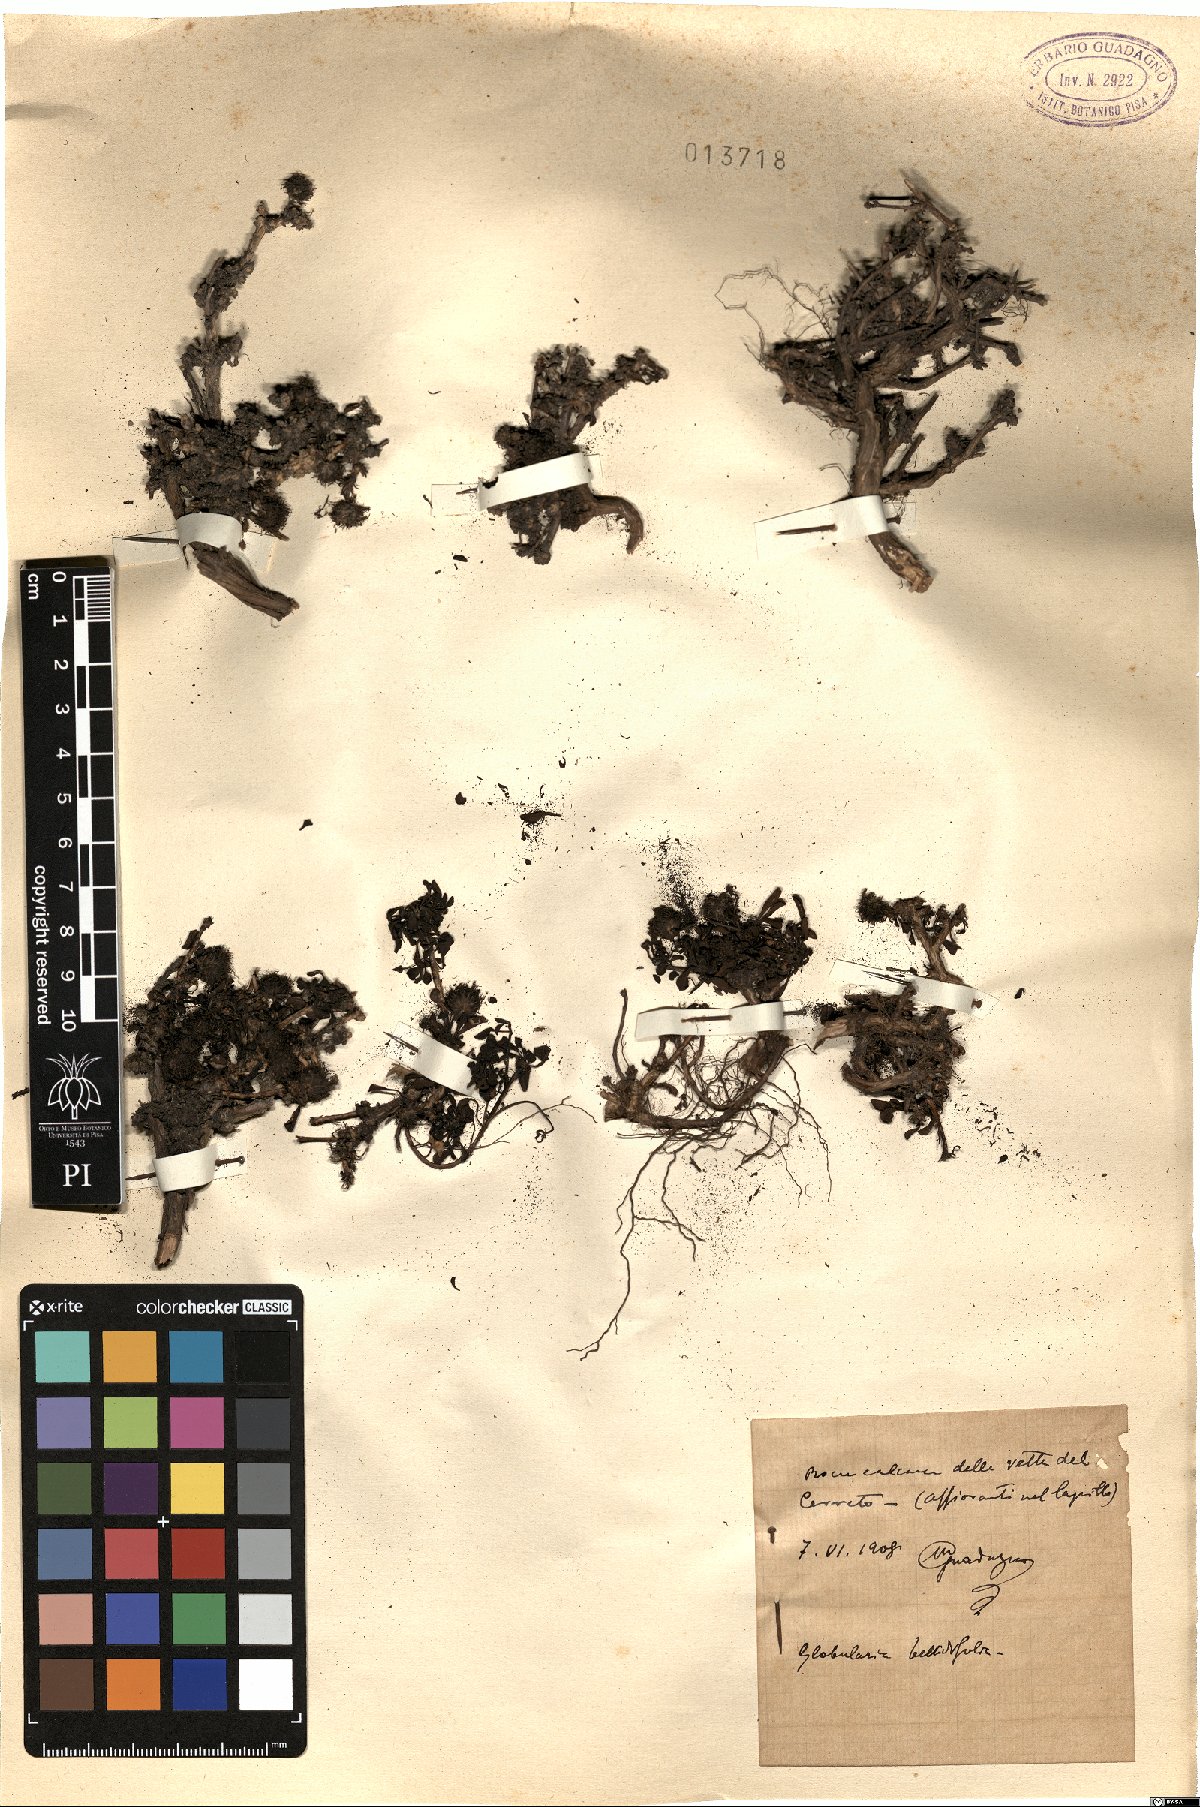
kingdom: Plantae
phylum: Tracheophyta
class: Magnoliopsida
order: Lamiales
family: Plantaginaceae
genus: Globularia
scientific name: Globularia meridionalis
